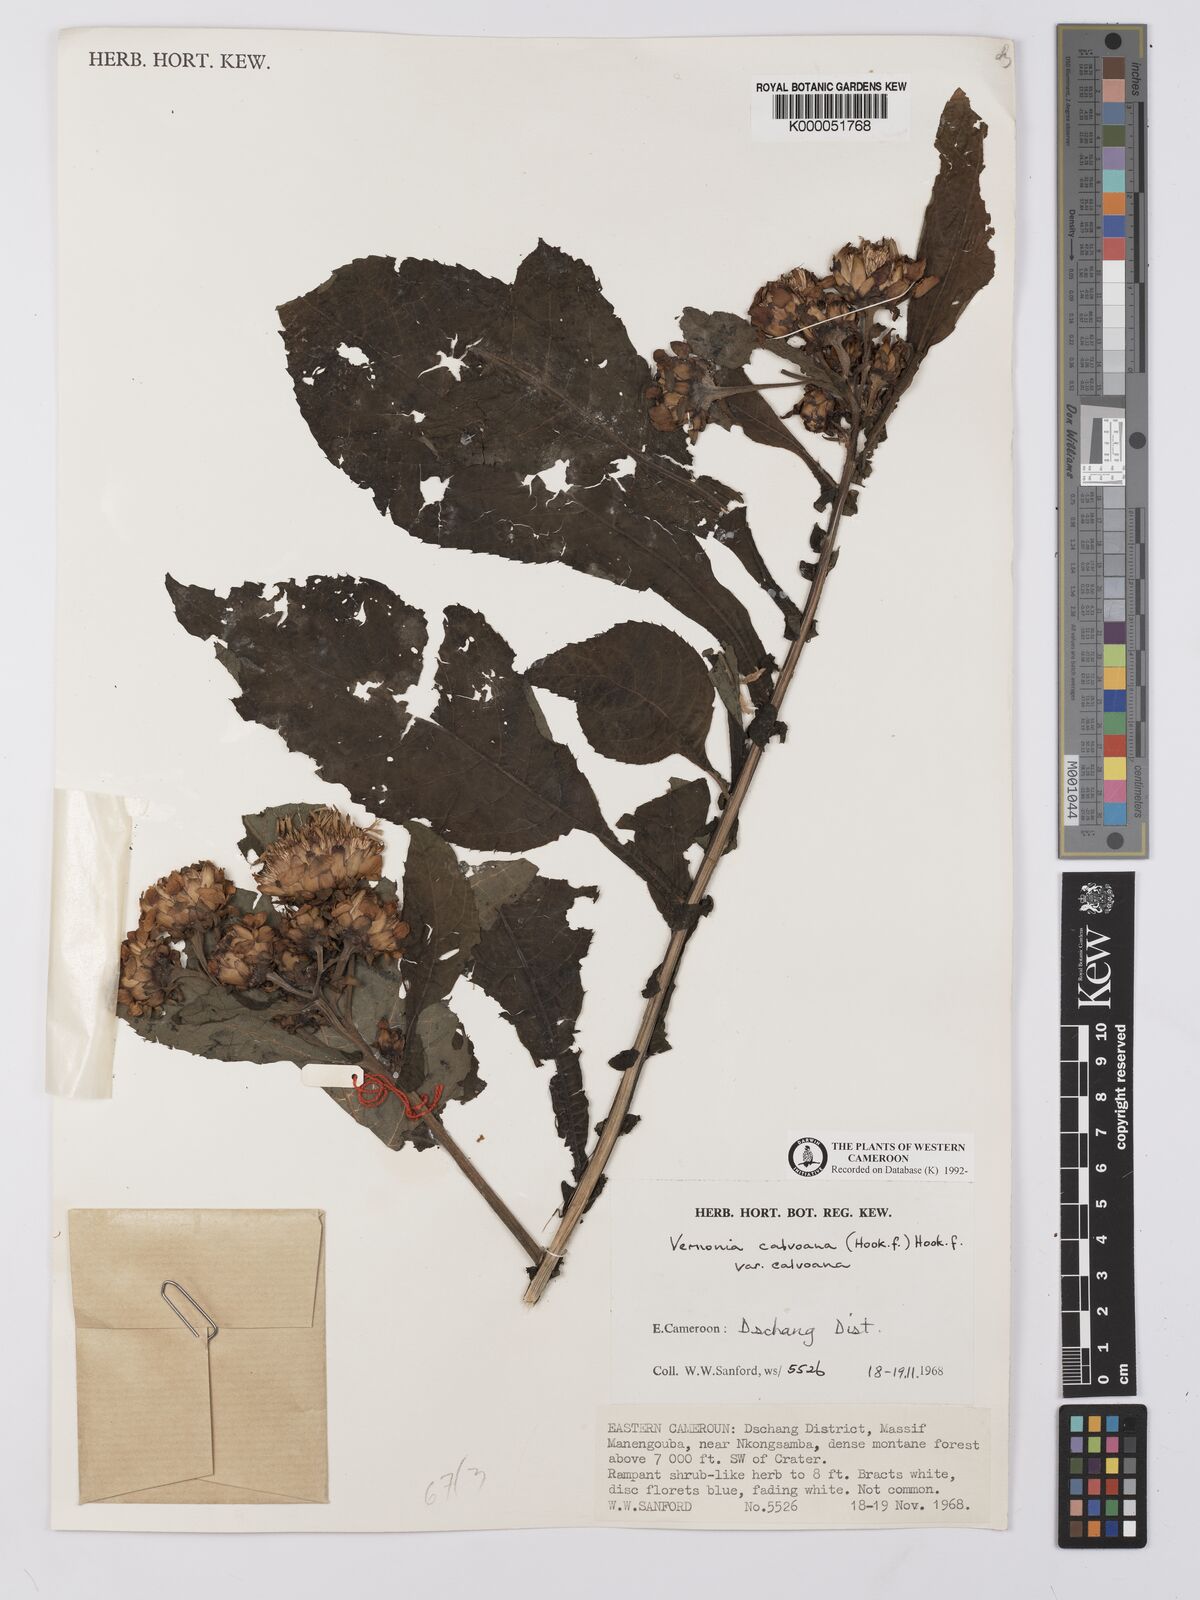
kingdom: Plantae
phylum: Tracheophyta
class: Magnoliopsida
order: Asterales
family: Asteraceae
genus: Baccharoides
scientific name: Baccharoides calvoana
